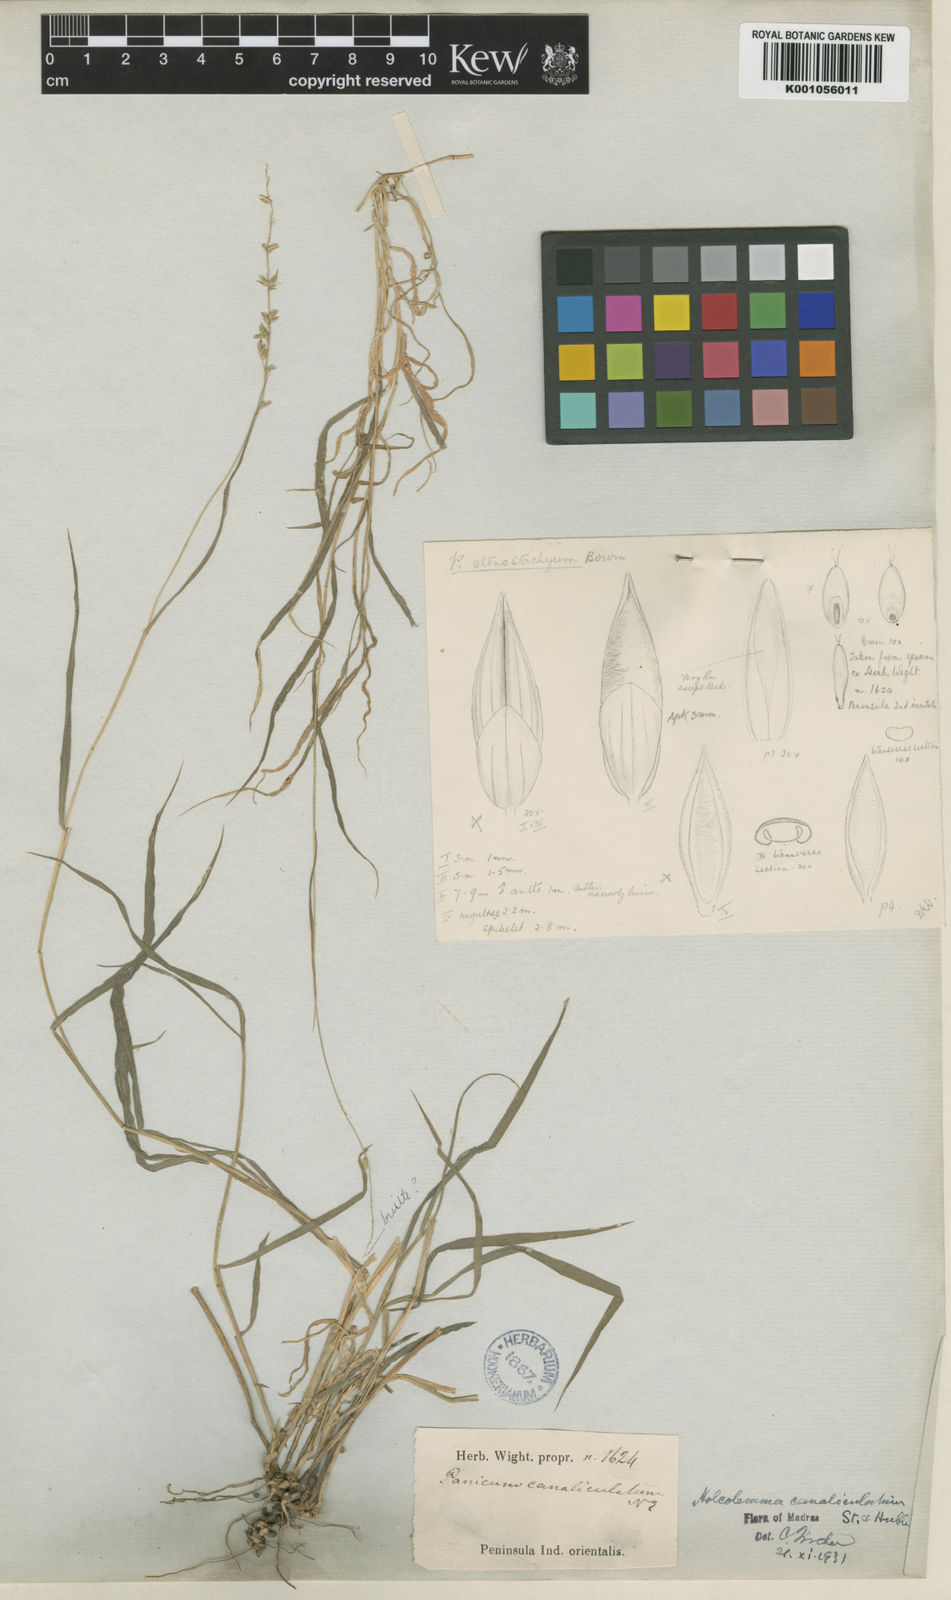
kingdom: Plantae
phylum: Tracheophyta
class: Liliopsida
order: Poales
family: Poaceae
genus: Holcolemma
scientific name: Holcolemma canaliculatum
